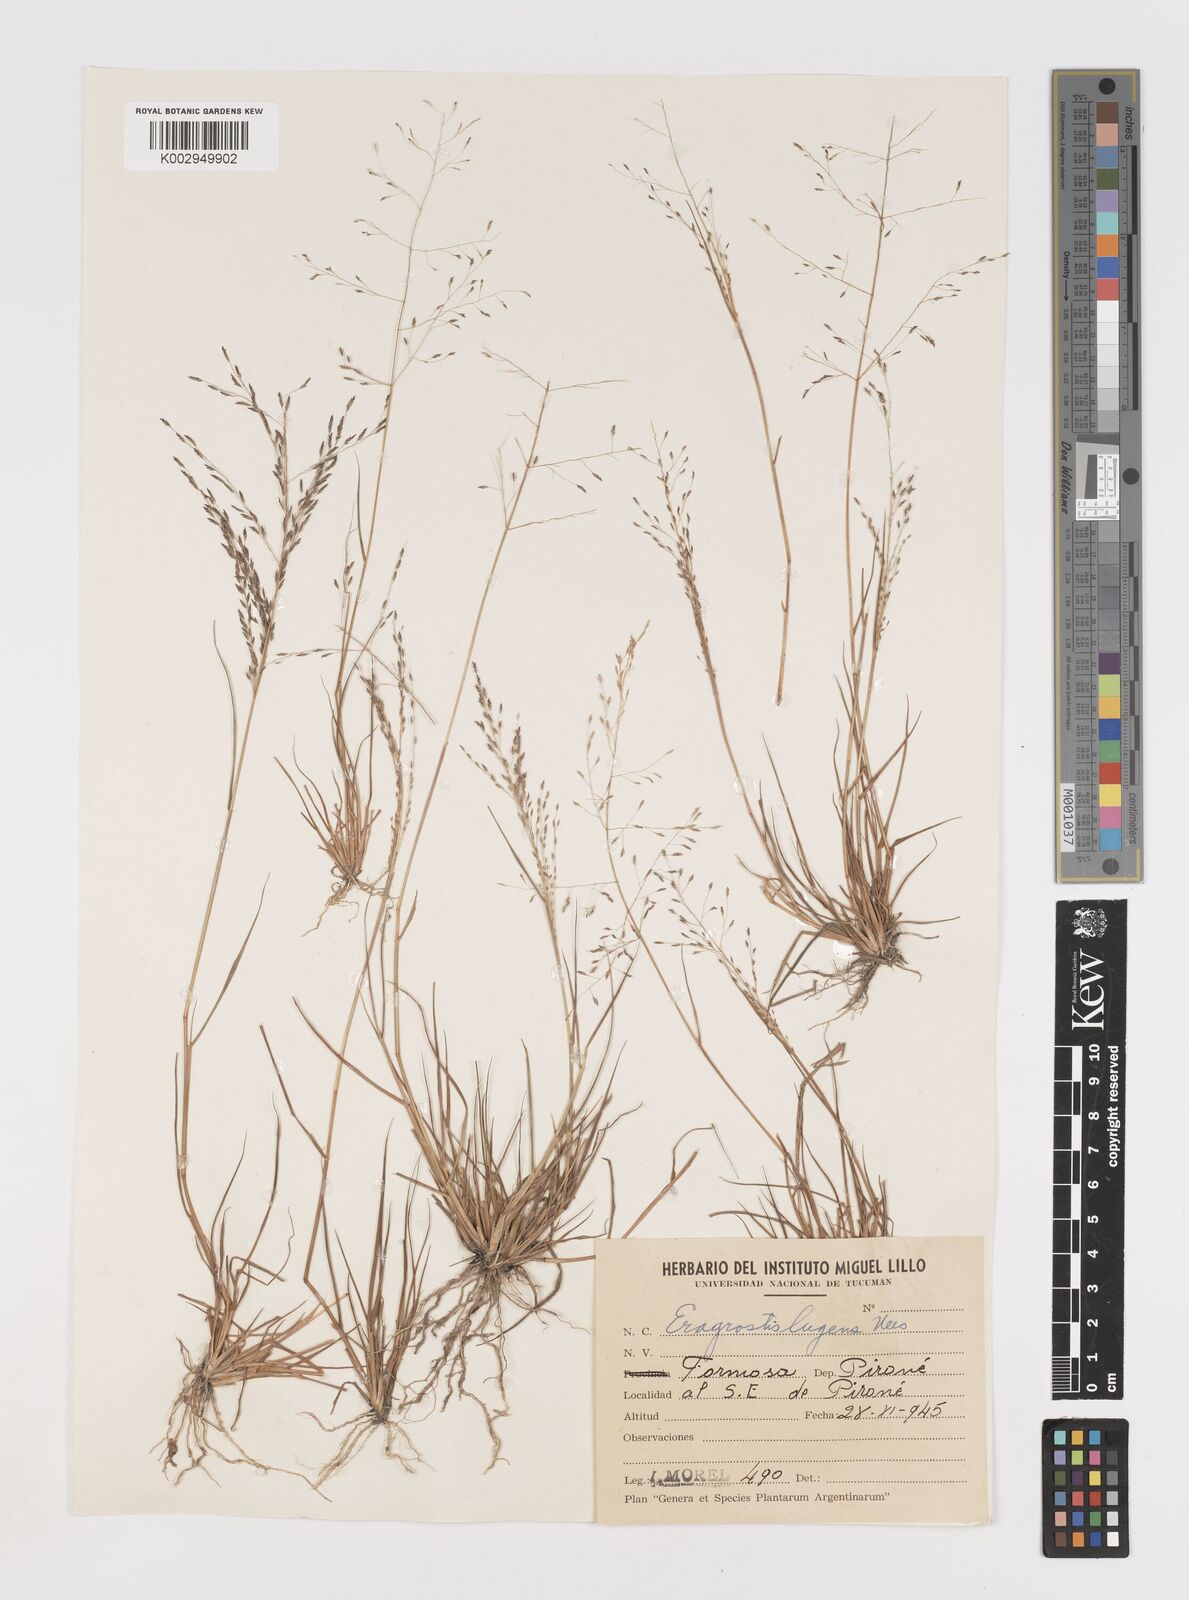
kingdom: Plantae
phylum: Tracheophyta
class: Liliopsida
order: Poales
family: Poaceae
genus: Eragrostis
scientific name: Eragrostis lugens
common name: Mourning love grass
